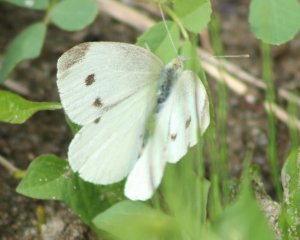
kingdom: Animalia
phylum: Arthropoda
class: Insecta
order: Lepidoptera
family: Pieridae
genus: Pieris
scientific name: Pieris rapae
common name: Cabbage White
